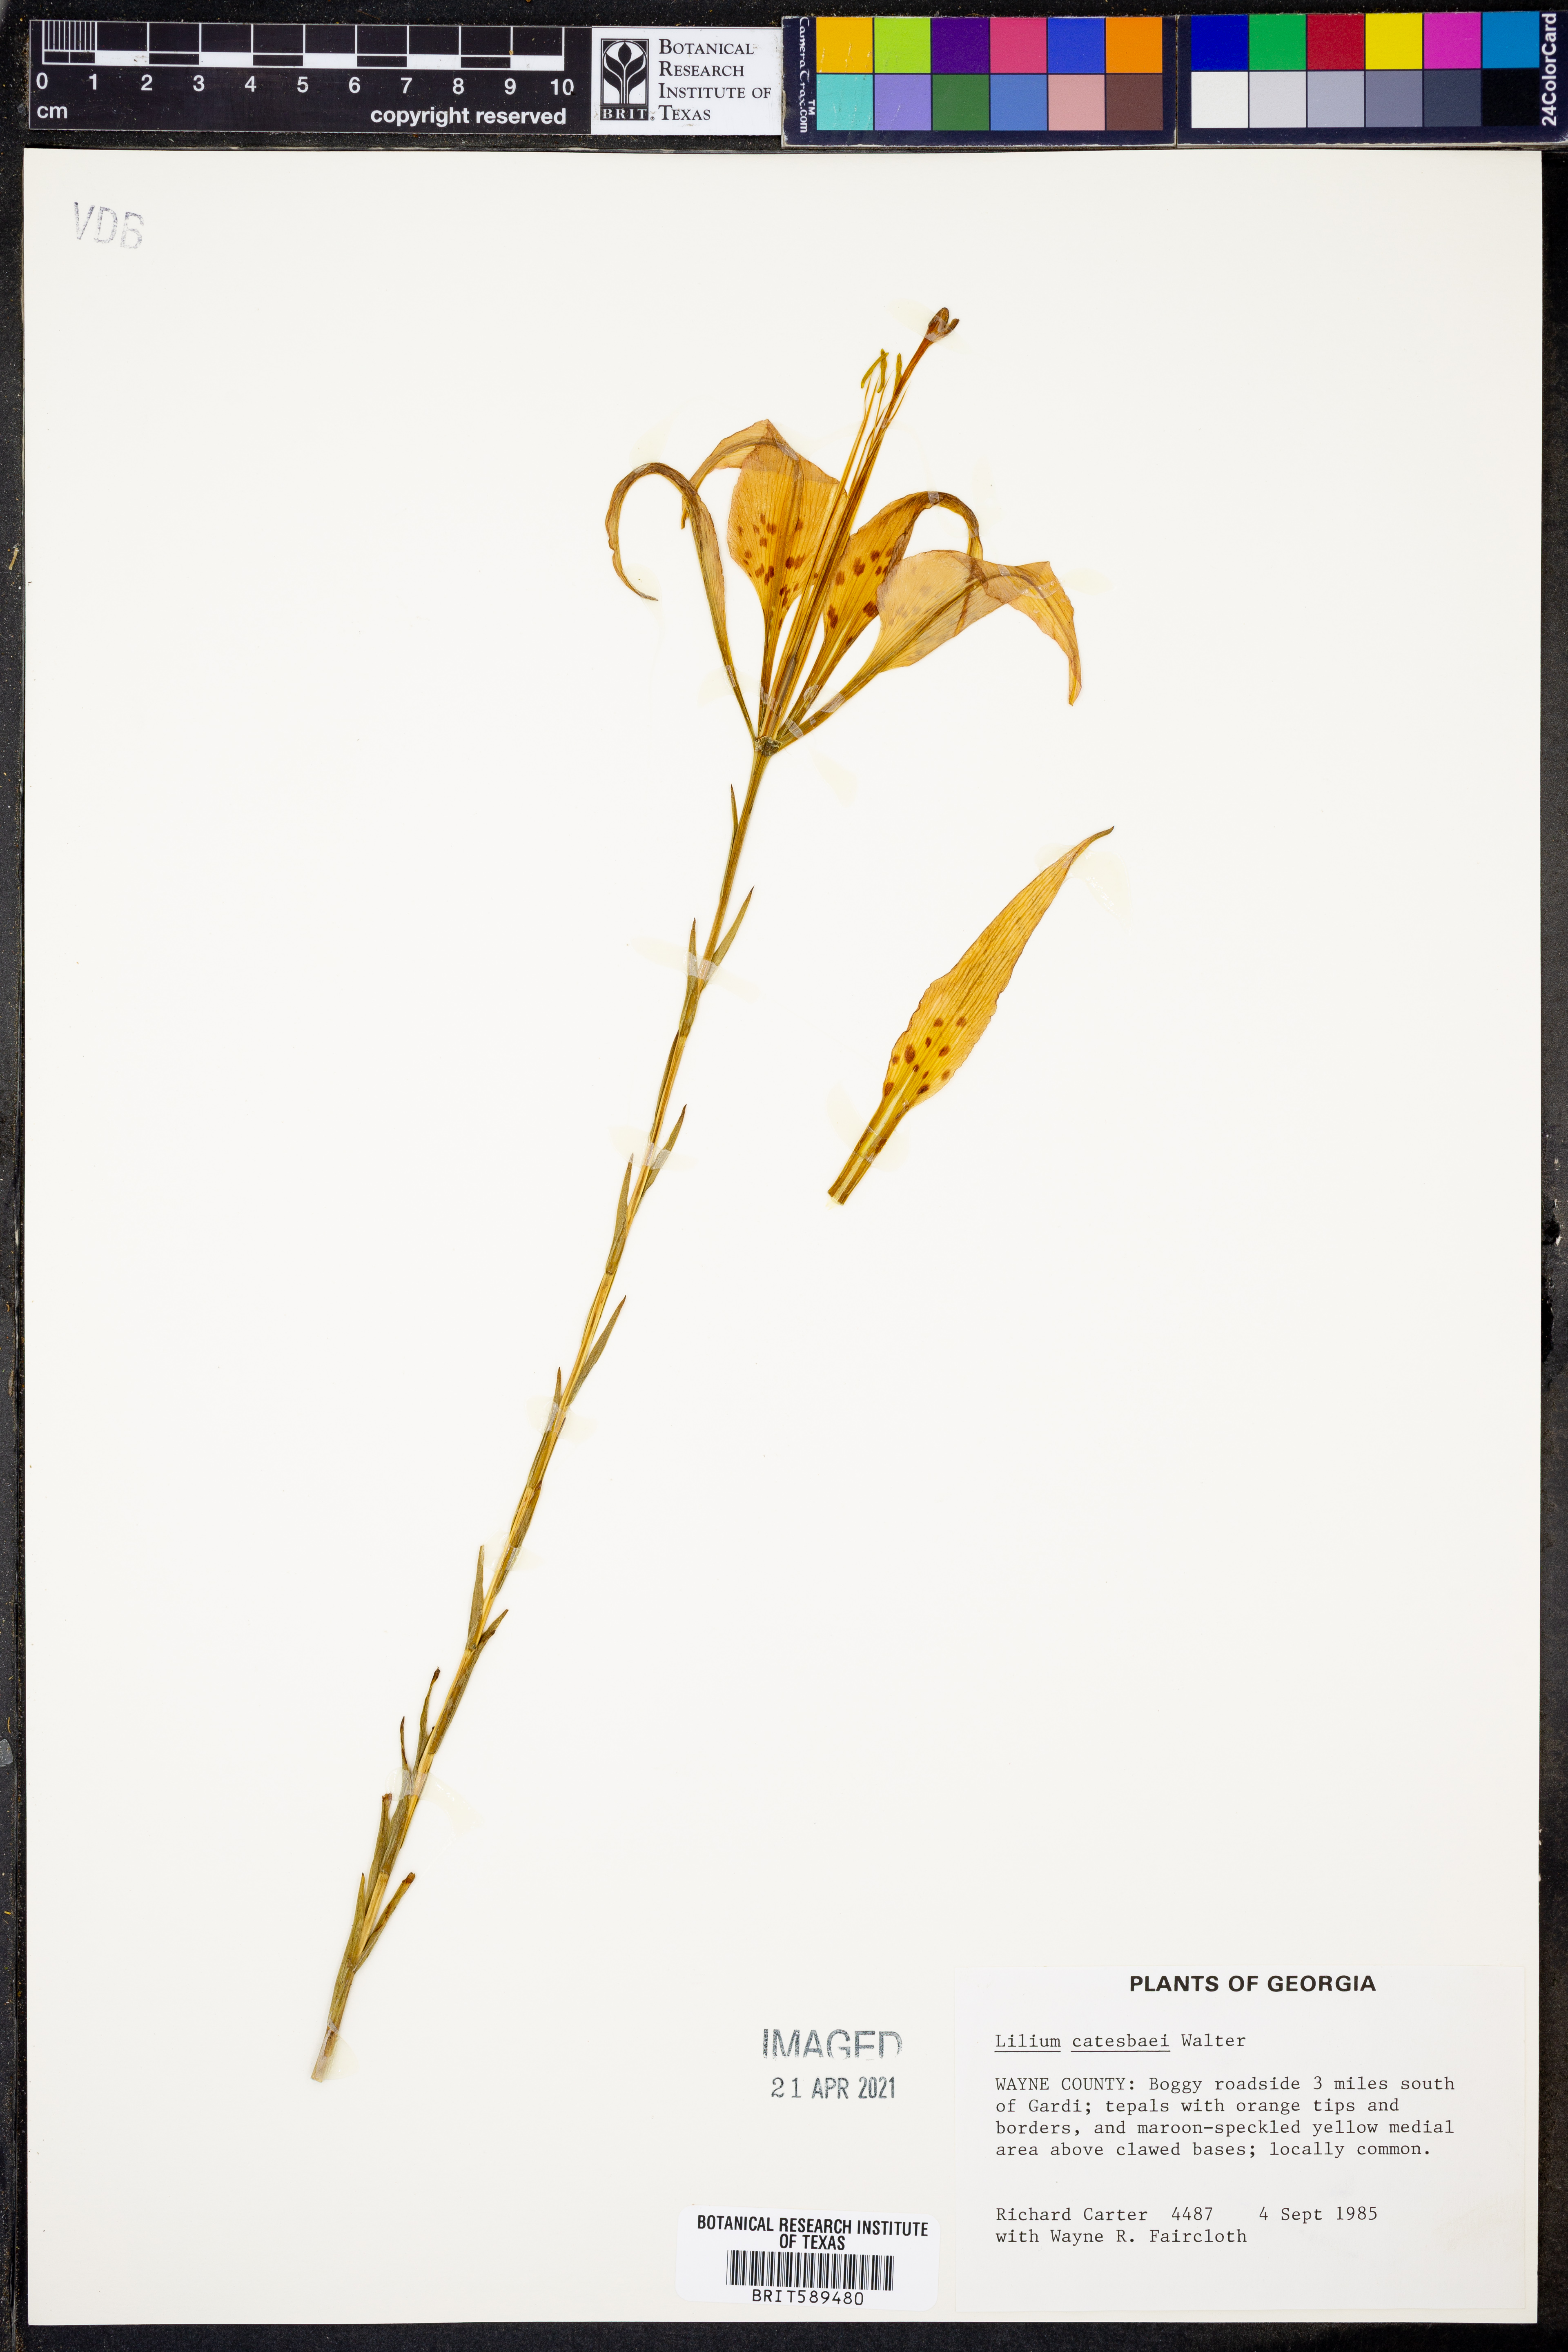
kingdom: Plantae
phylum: Tracheophyta
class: Liliopsida
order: Liliales
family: Liliaceae
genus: Lilium
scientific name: Lilium catesbaei
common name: Catesby's lily
